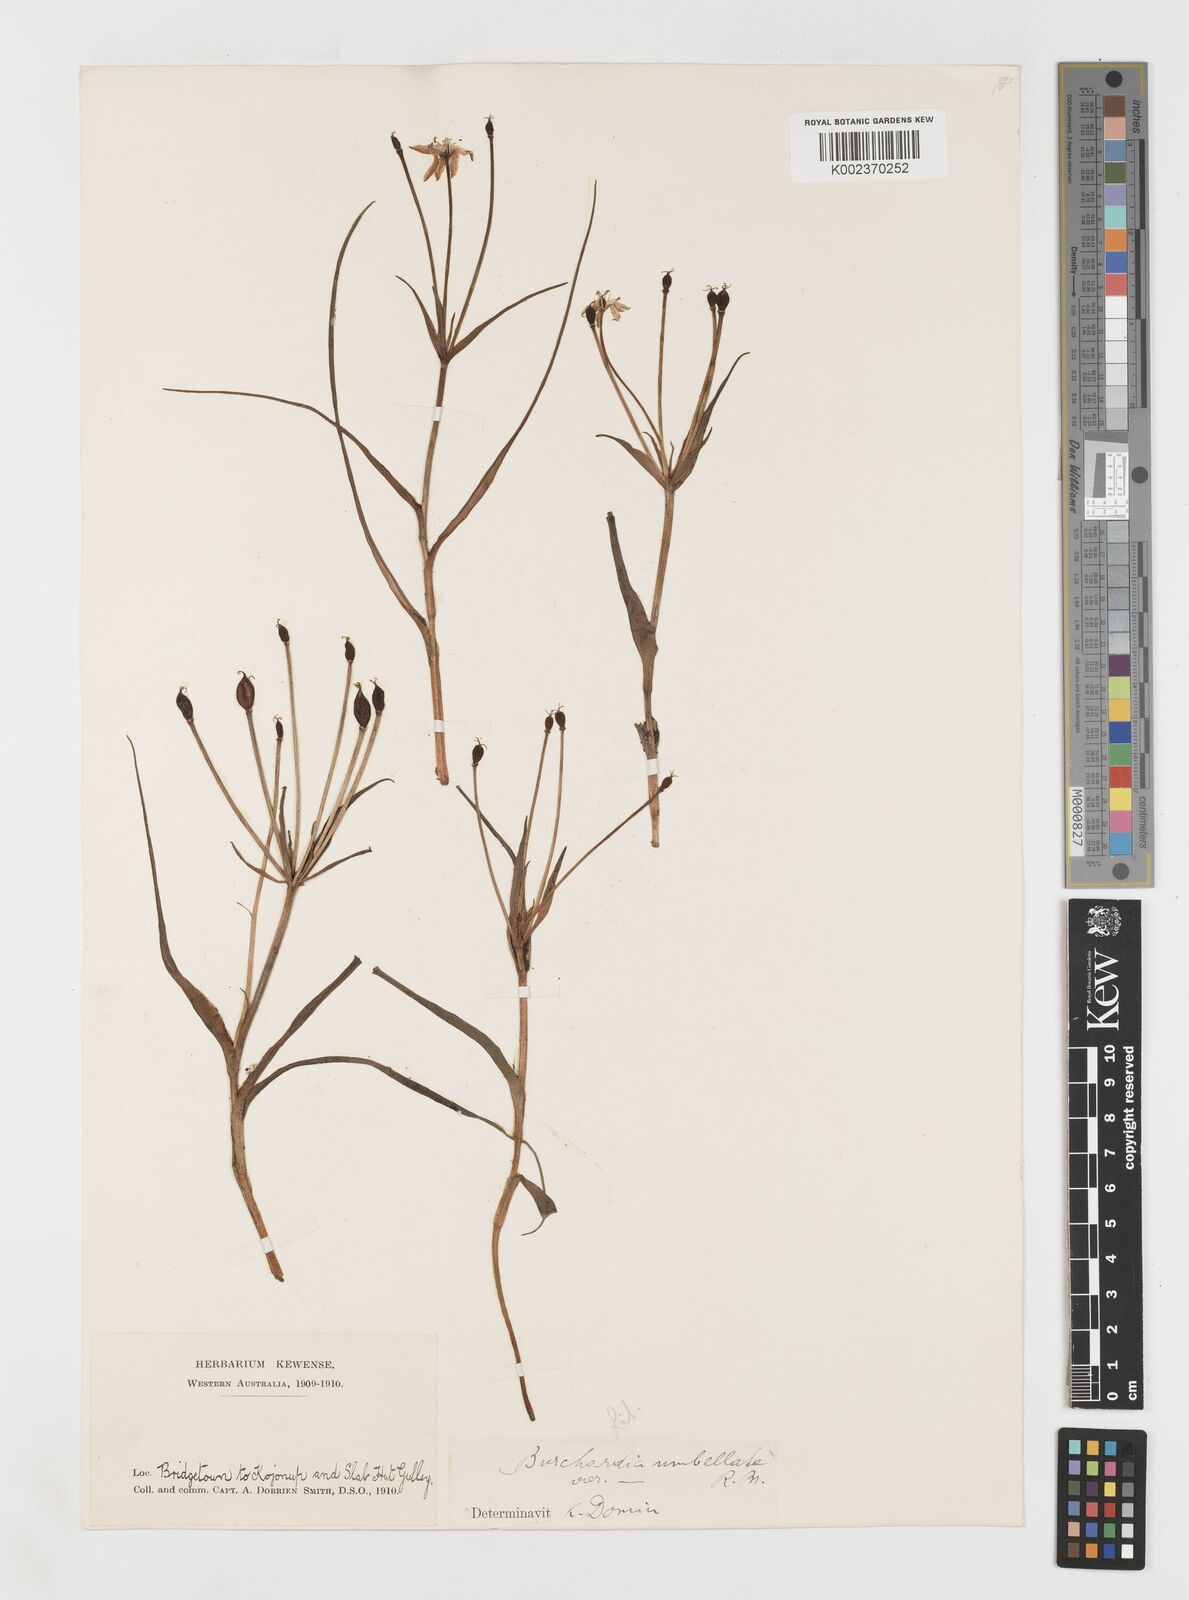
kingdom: Plantae
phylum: Tracheophyta
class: Liliopsida
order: Liliales
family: Colchicaceae
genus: Burchardia
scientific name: Burchardia umbellata
